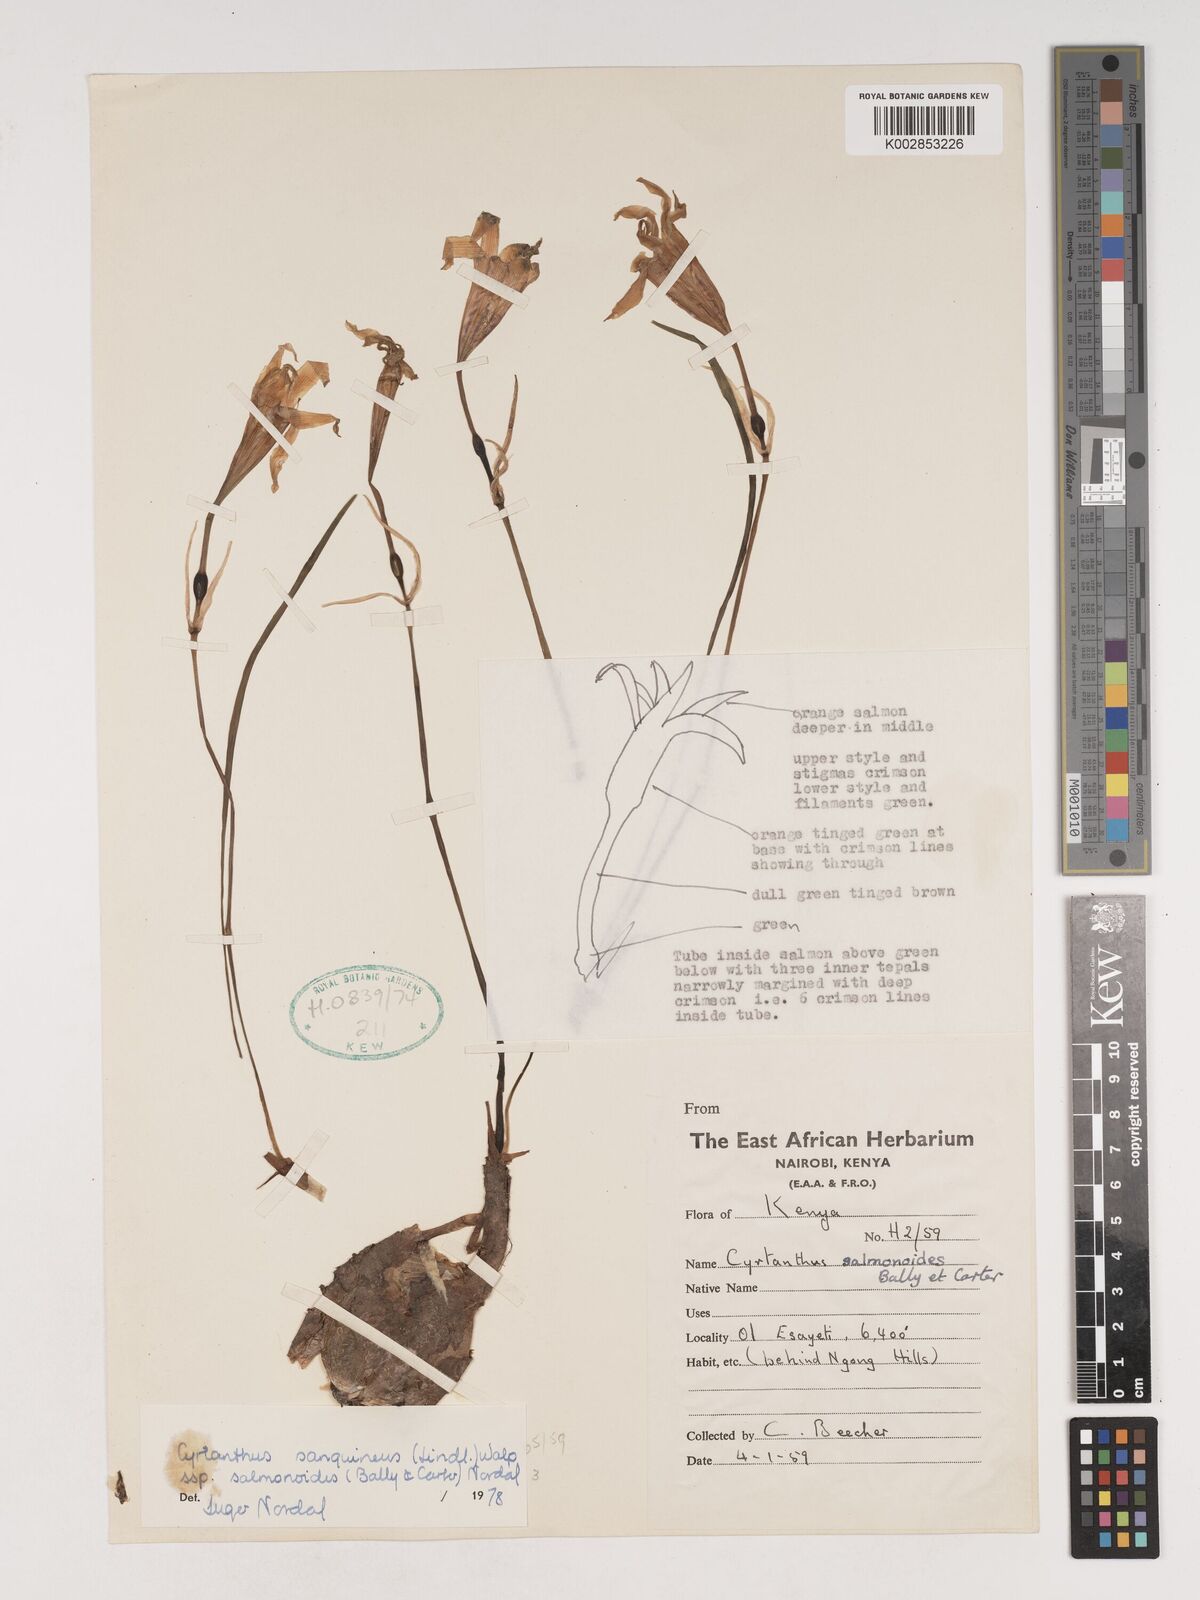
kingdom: Plantae
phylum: Tracheophyta
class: Liliopsida
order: Asparagales
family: Amaryllidaceae
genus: Cyrtanthus
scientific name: Cyrtanthus sanguineus
